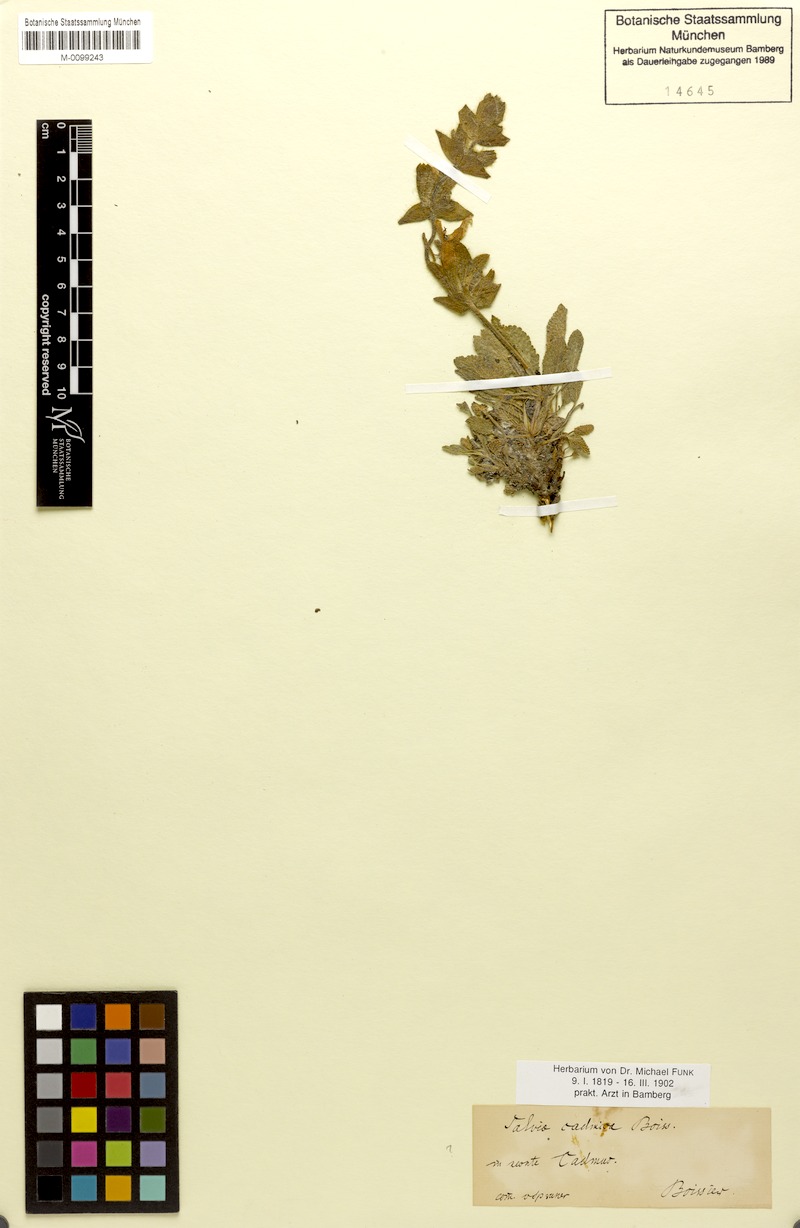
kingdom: Plantae
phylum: Tracheophyta
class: Magnoliopsida
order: Lamiales
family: Lamiaceae
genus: Salvia
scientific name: Salvia cadmica
